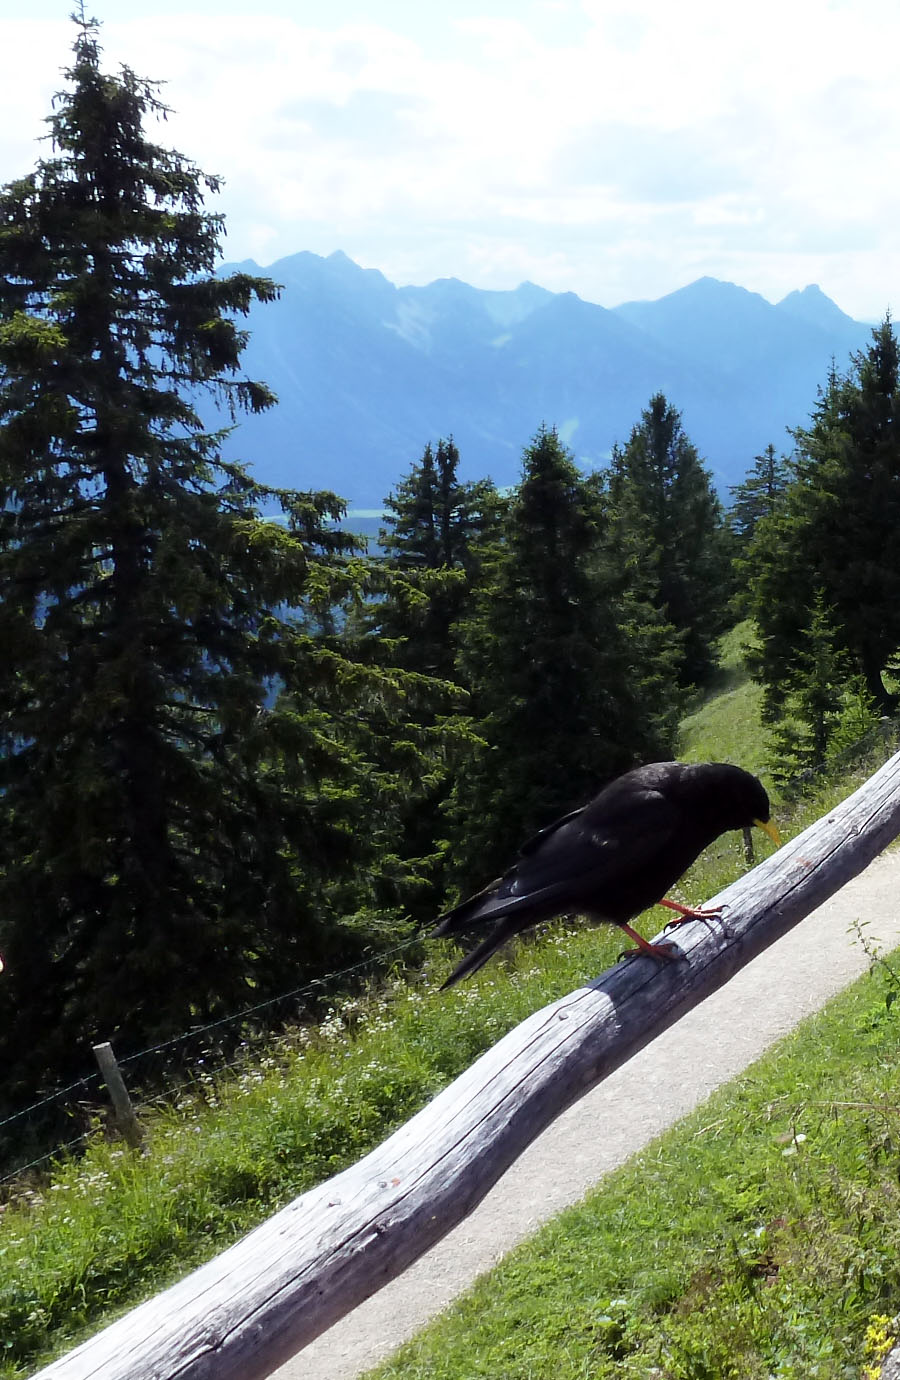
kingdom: Animalia
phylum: Chordata
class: Aves
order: Passeriformes
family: Corvidae
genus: Pyrrhocorax
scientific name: Pyrrhocorax graculus
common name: Alpine chough
